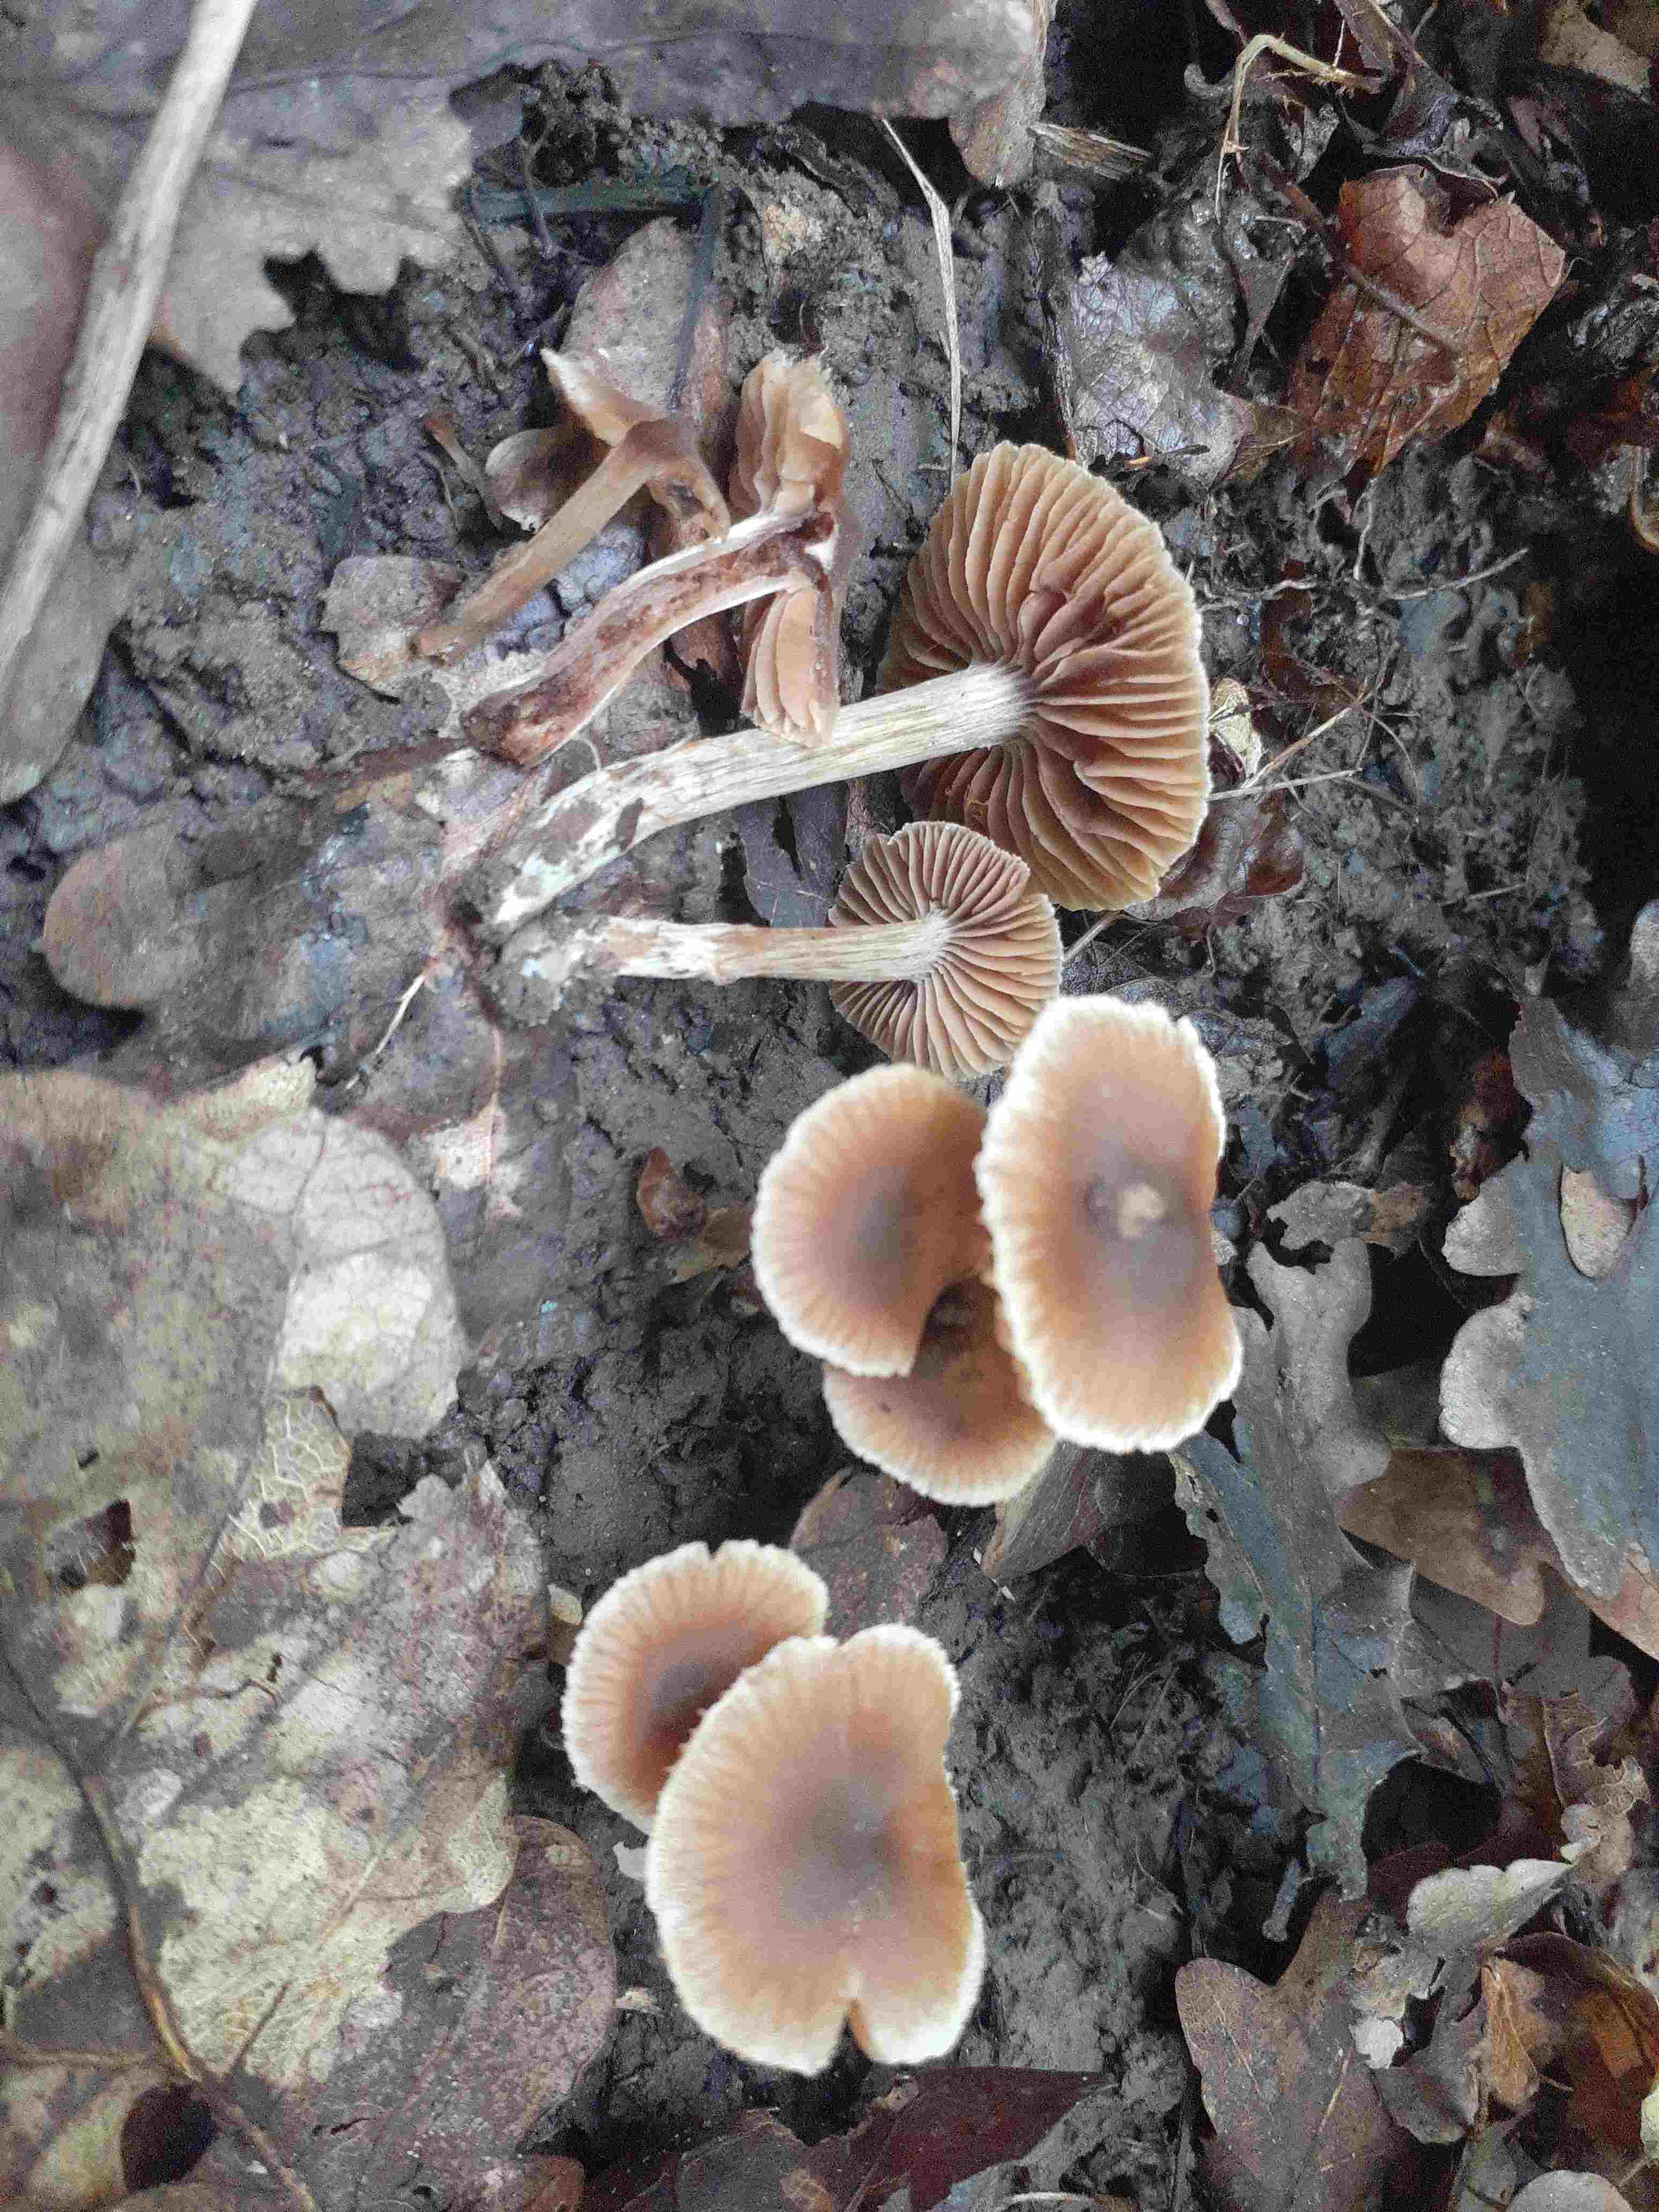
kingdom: Fungi
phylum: Basidiomycota
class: Agaricomycetes
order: Agaricales
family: Cortinariaceae
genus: Cortinarius
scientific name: Cortinarius rusticelloides
